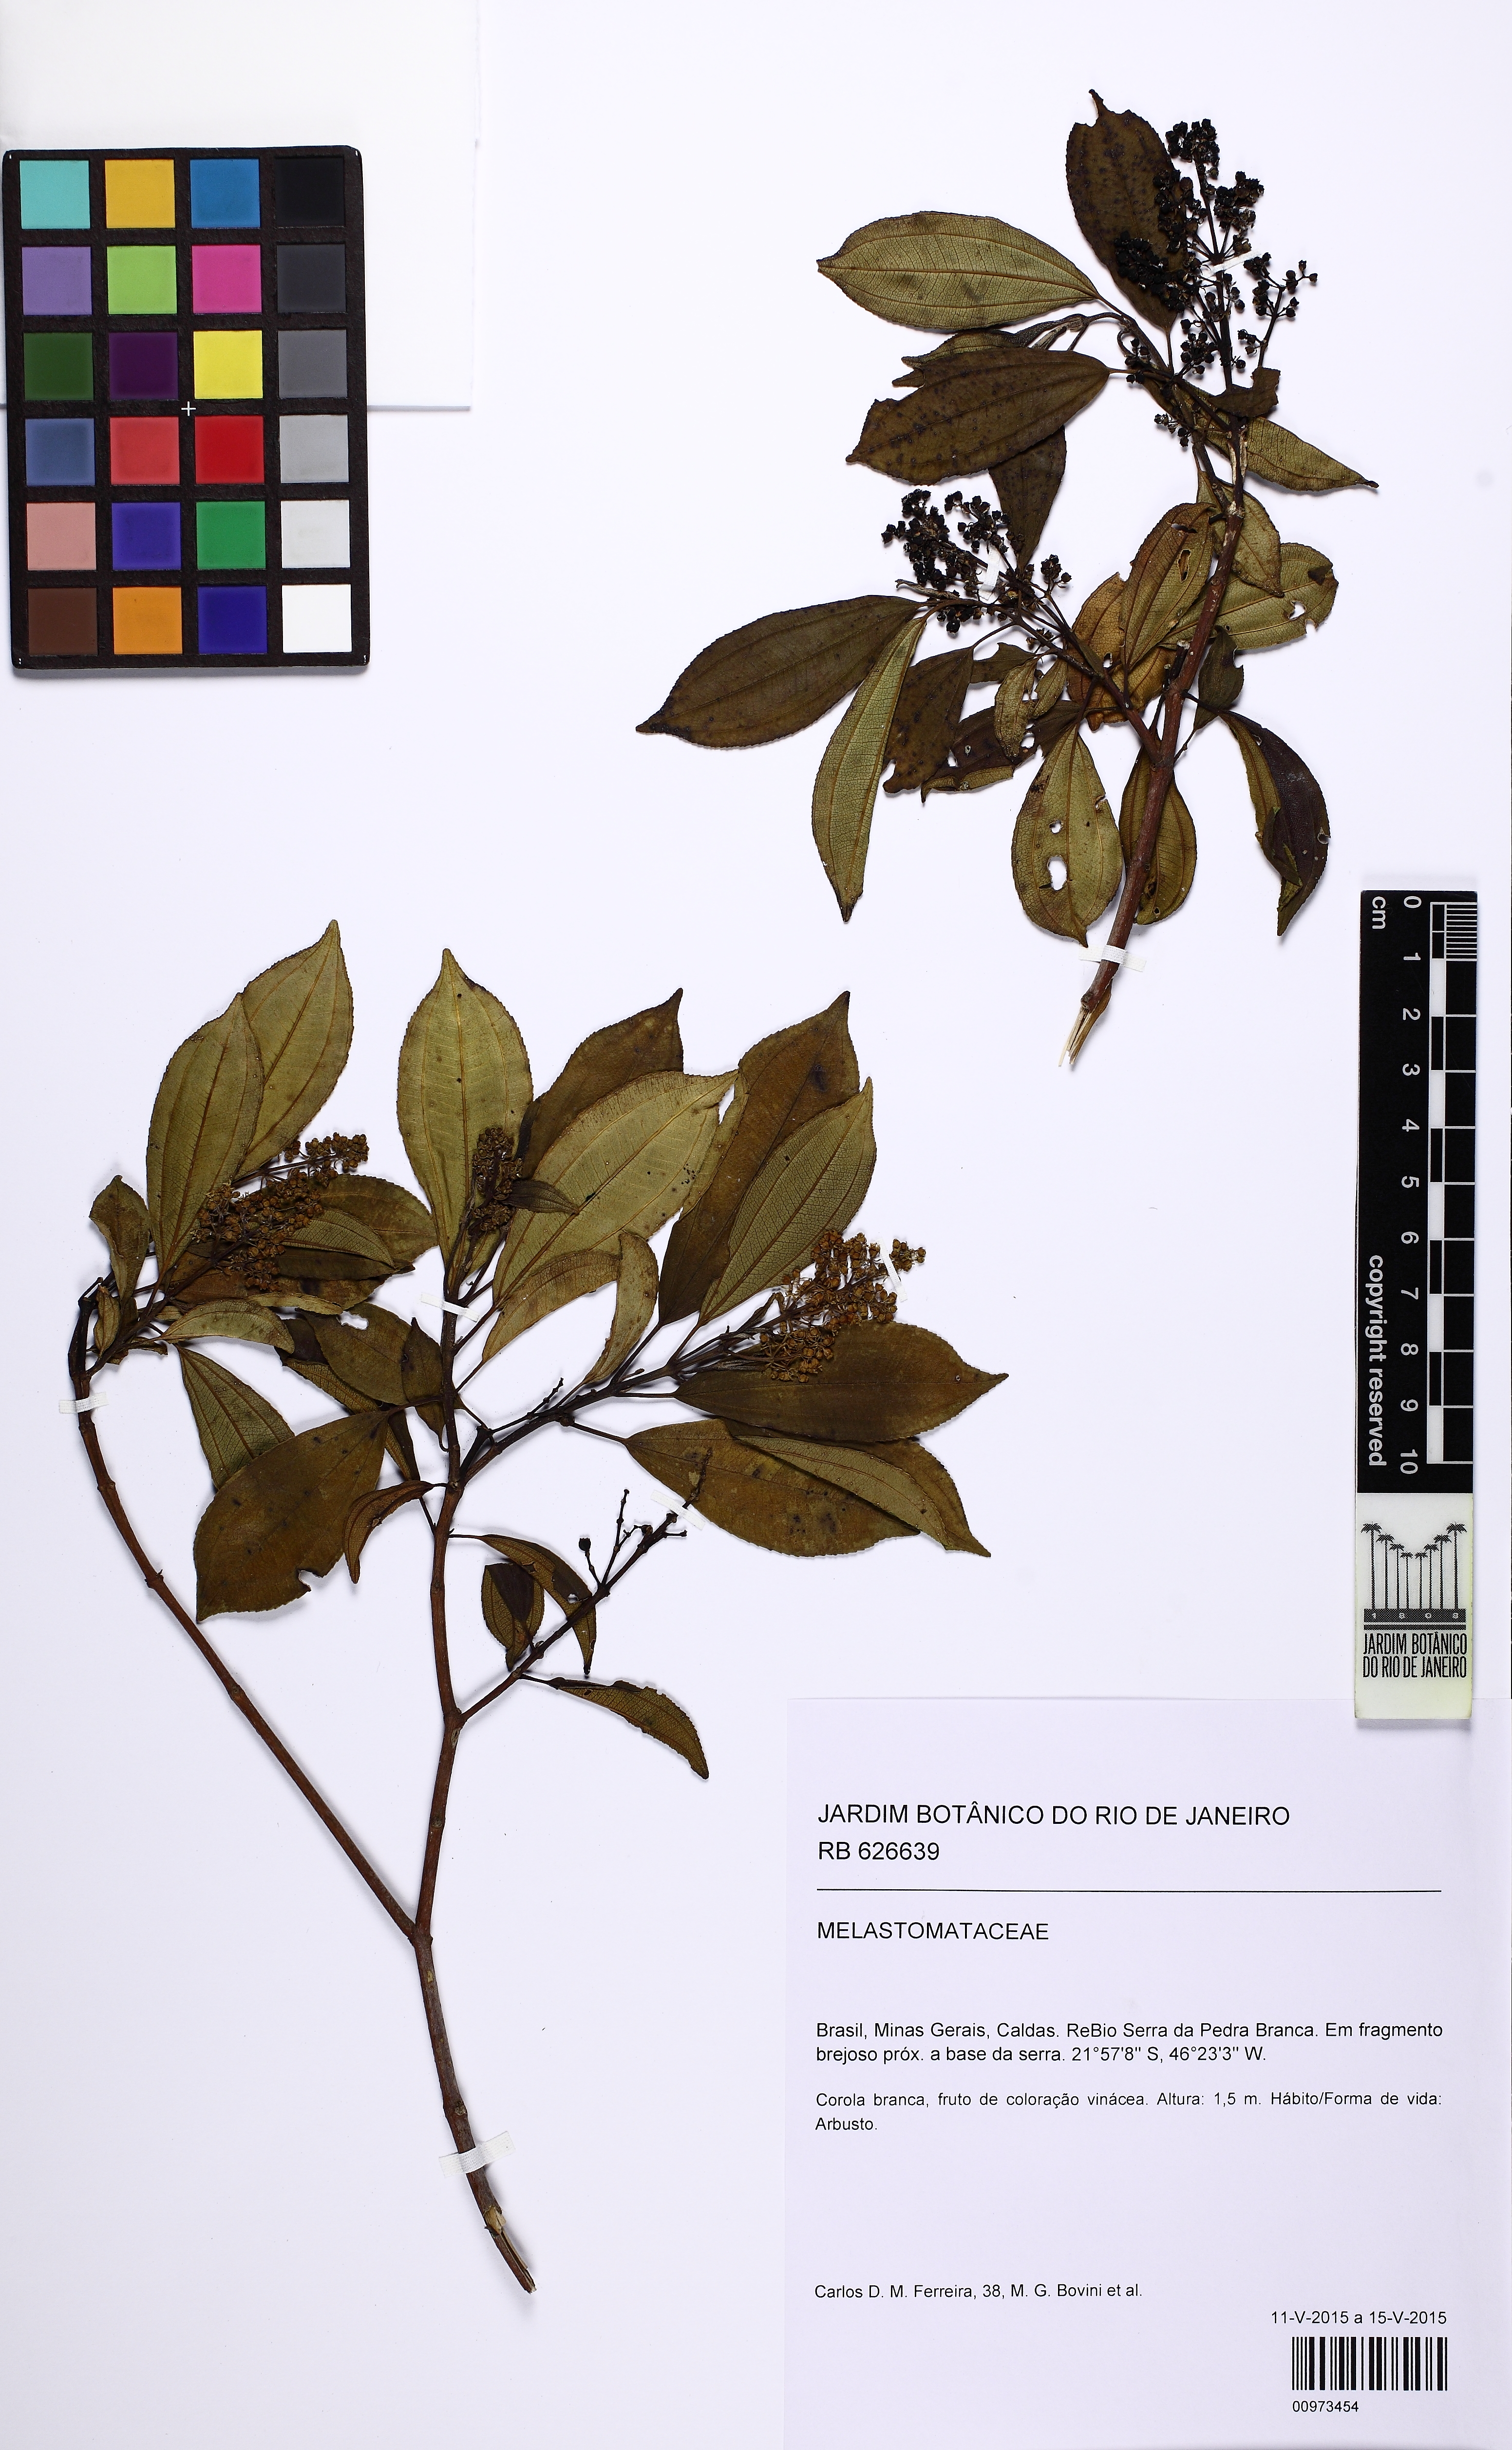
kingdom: Plantae
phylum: Tracheophyta
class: Magnoliopsida
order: Myrtales
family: Melastomataceae
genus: Miconia
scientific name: Miconia theizans
